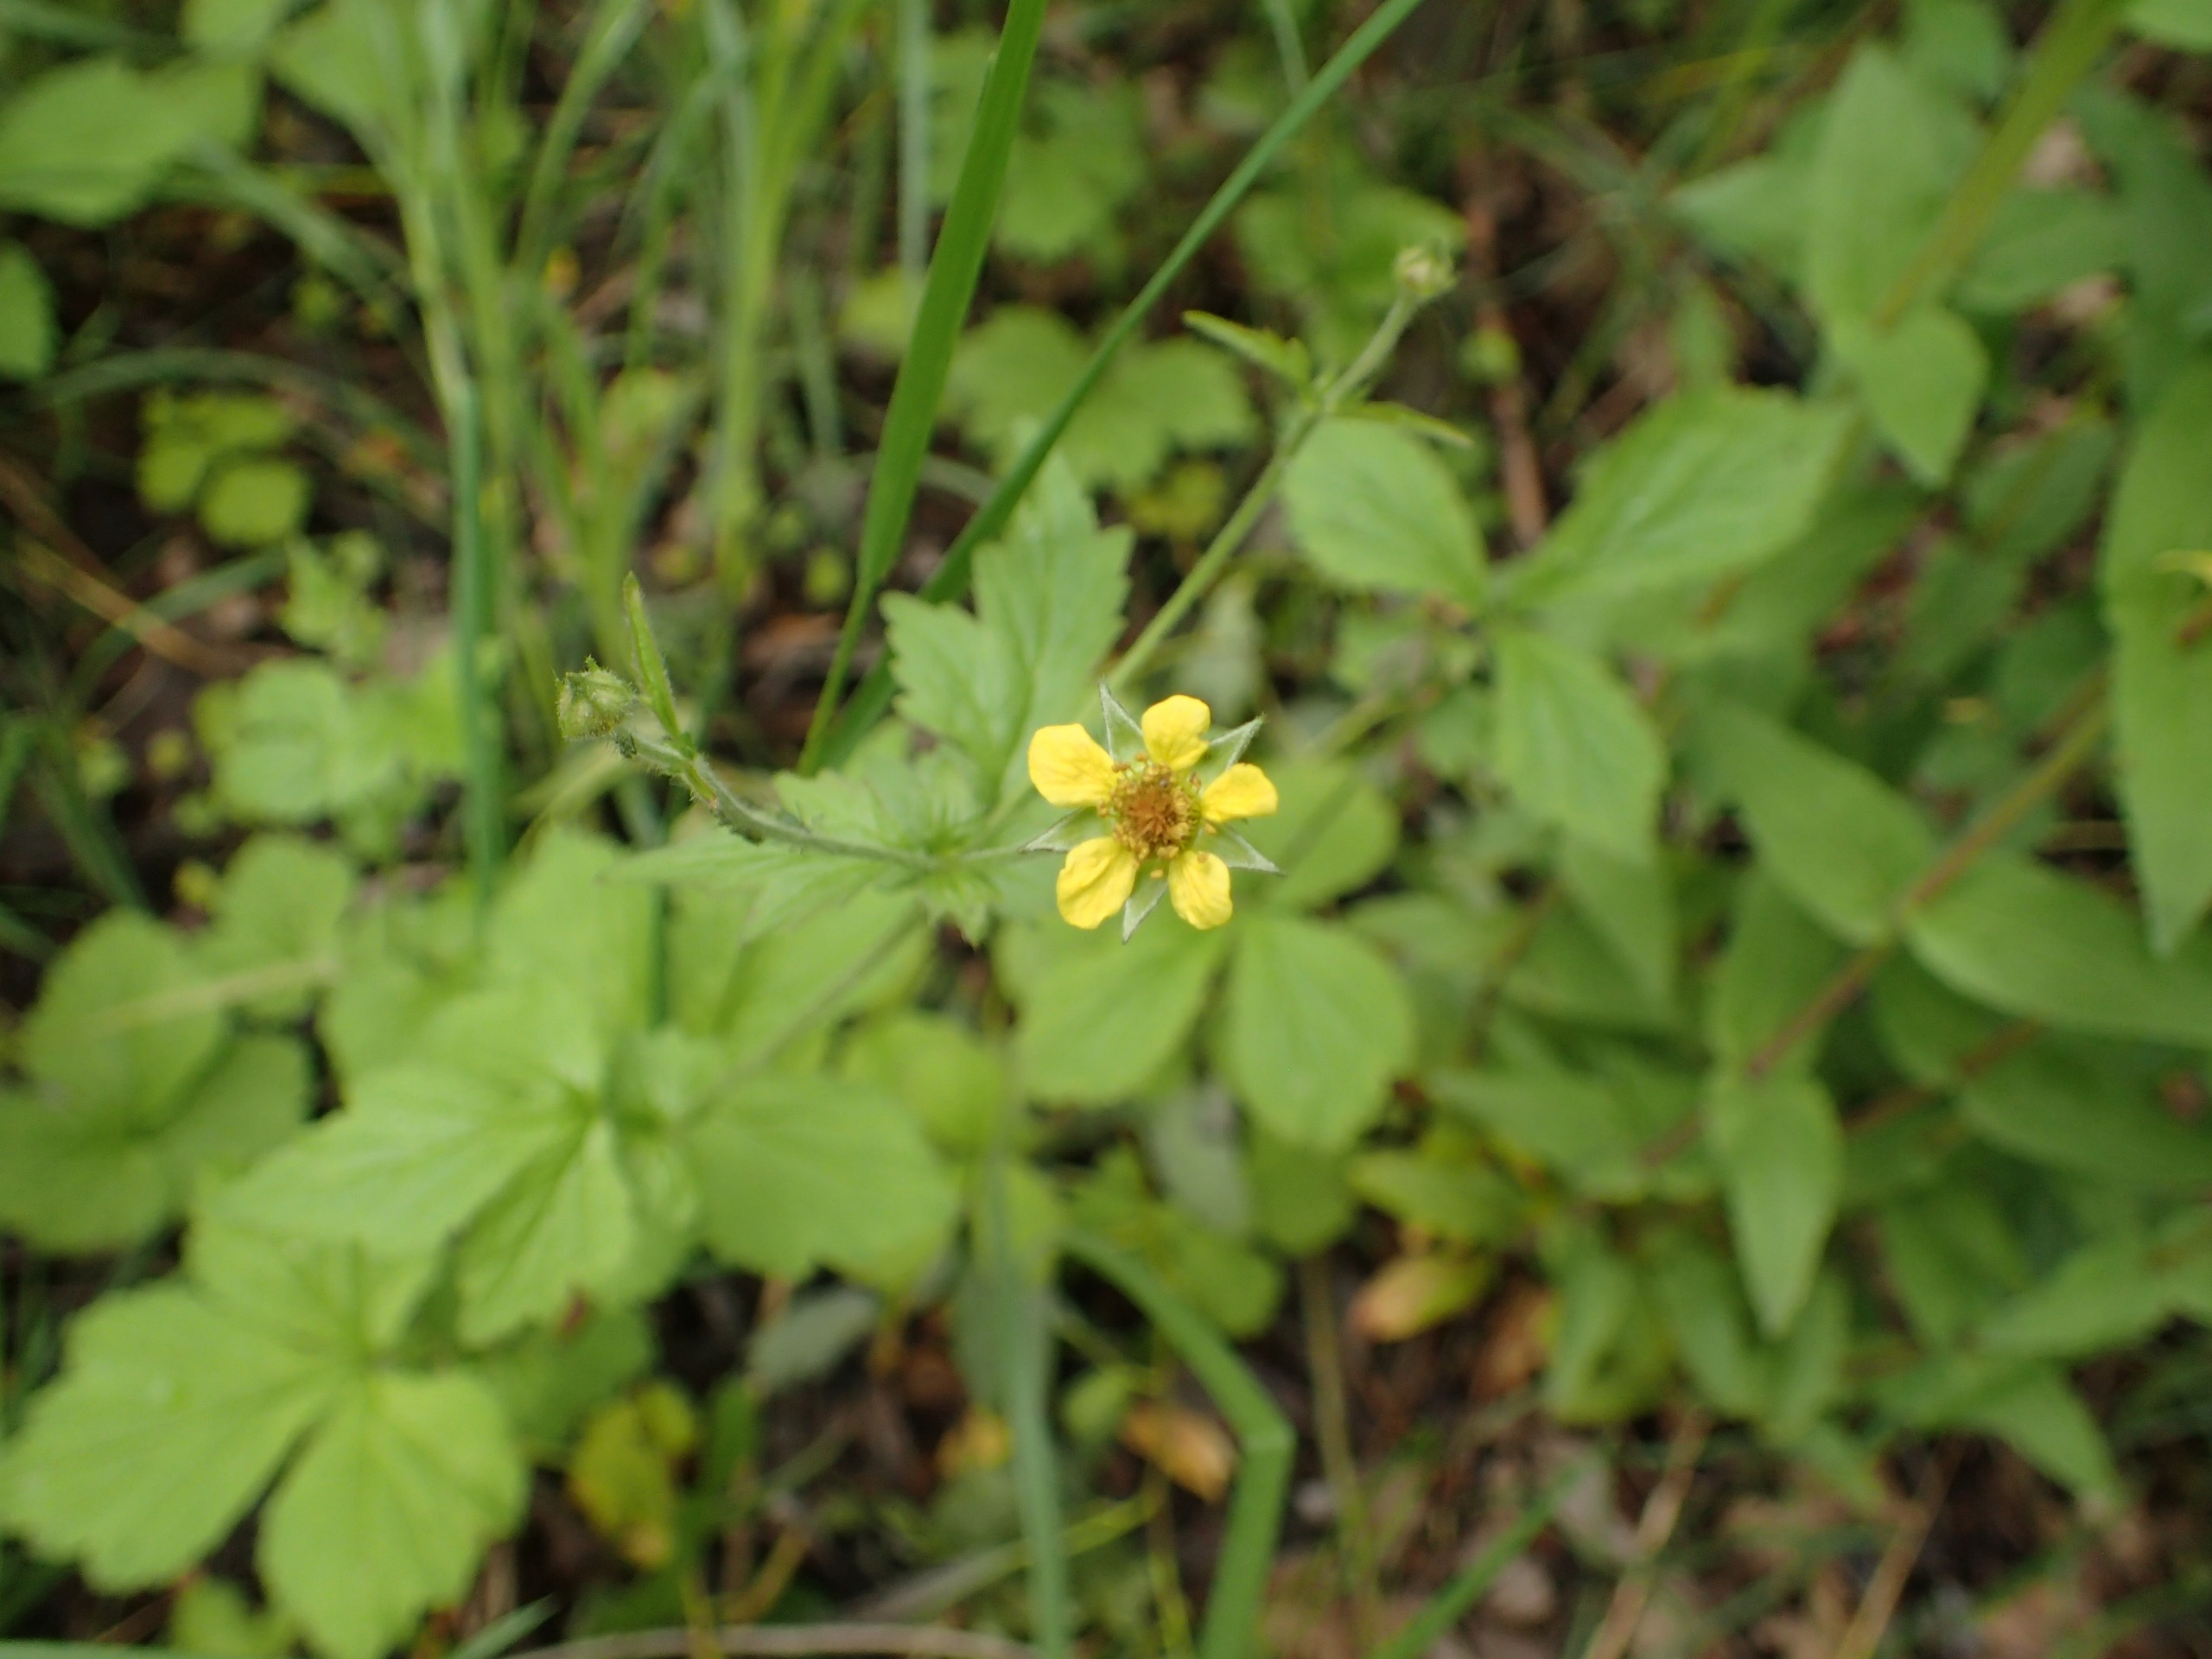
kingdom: Plantae
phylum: Tracheophyta
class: Magnoliopsida
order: Rosales
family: Rosaceae
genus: Geum
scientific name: Geum urbanum
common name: Feber-nellikerod
